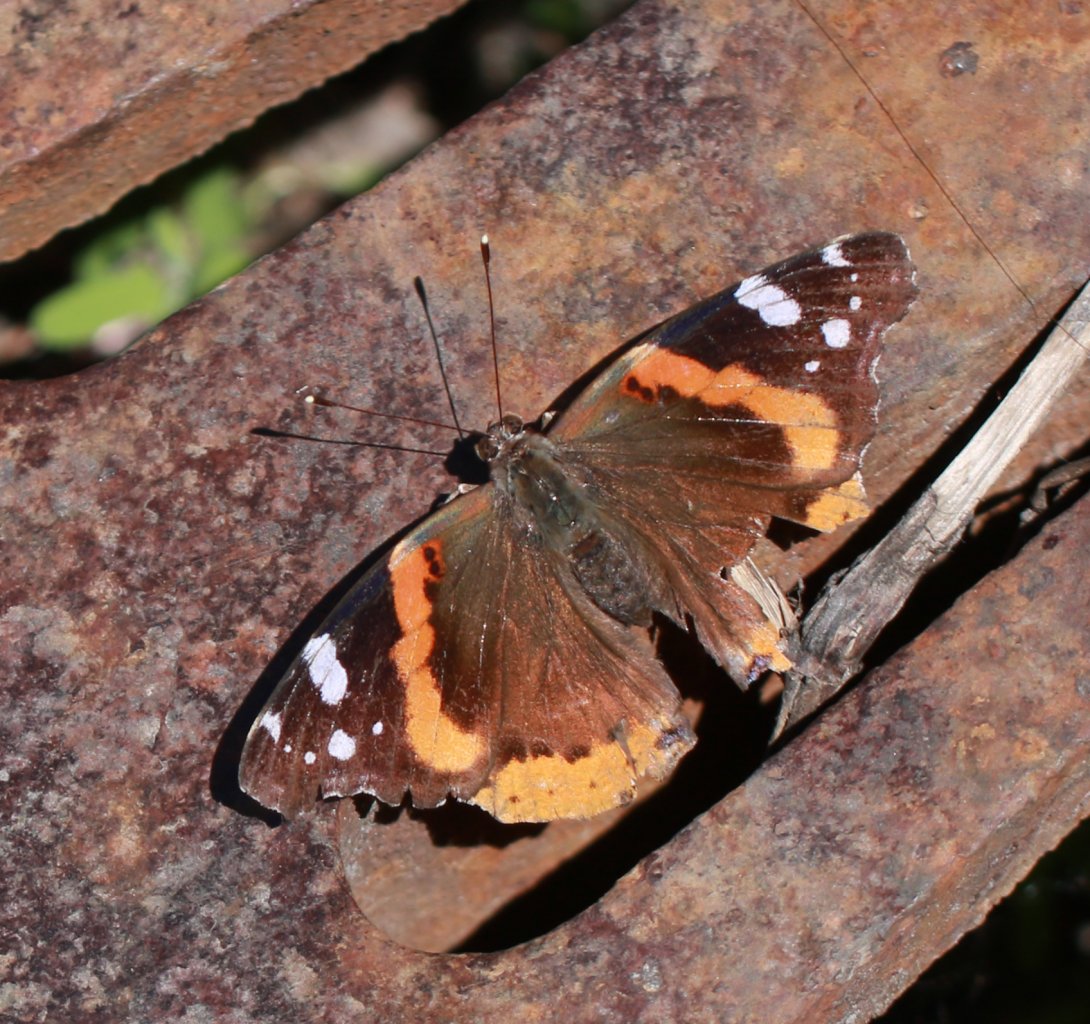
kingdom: Animalia
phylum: Arthropoda
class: Insecta
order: Lepidoptera
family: Nymphalidae
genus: Vanessa
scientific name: Vanessa atalanta
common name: Red Admiral
